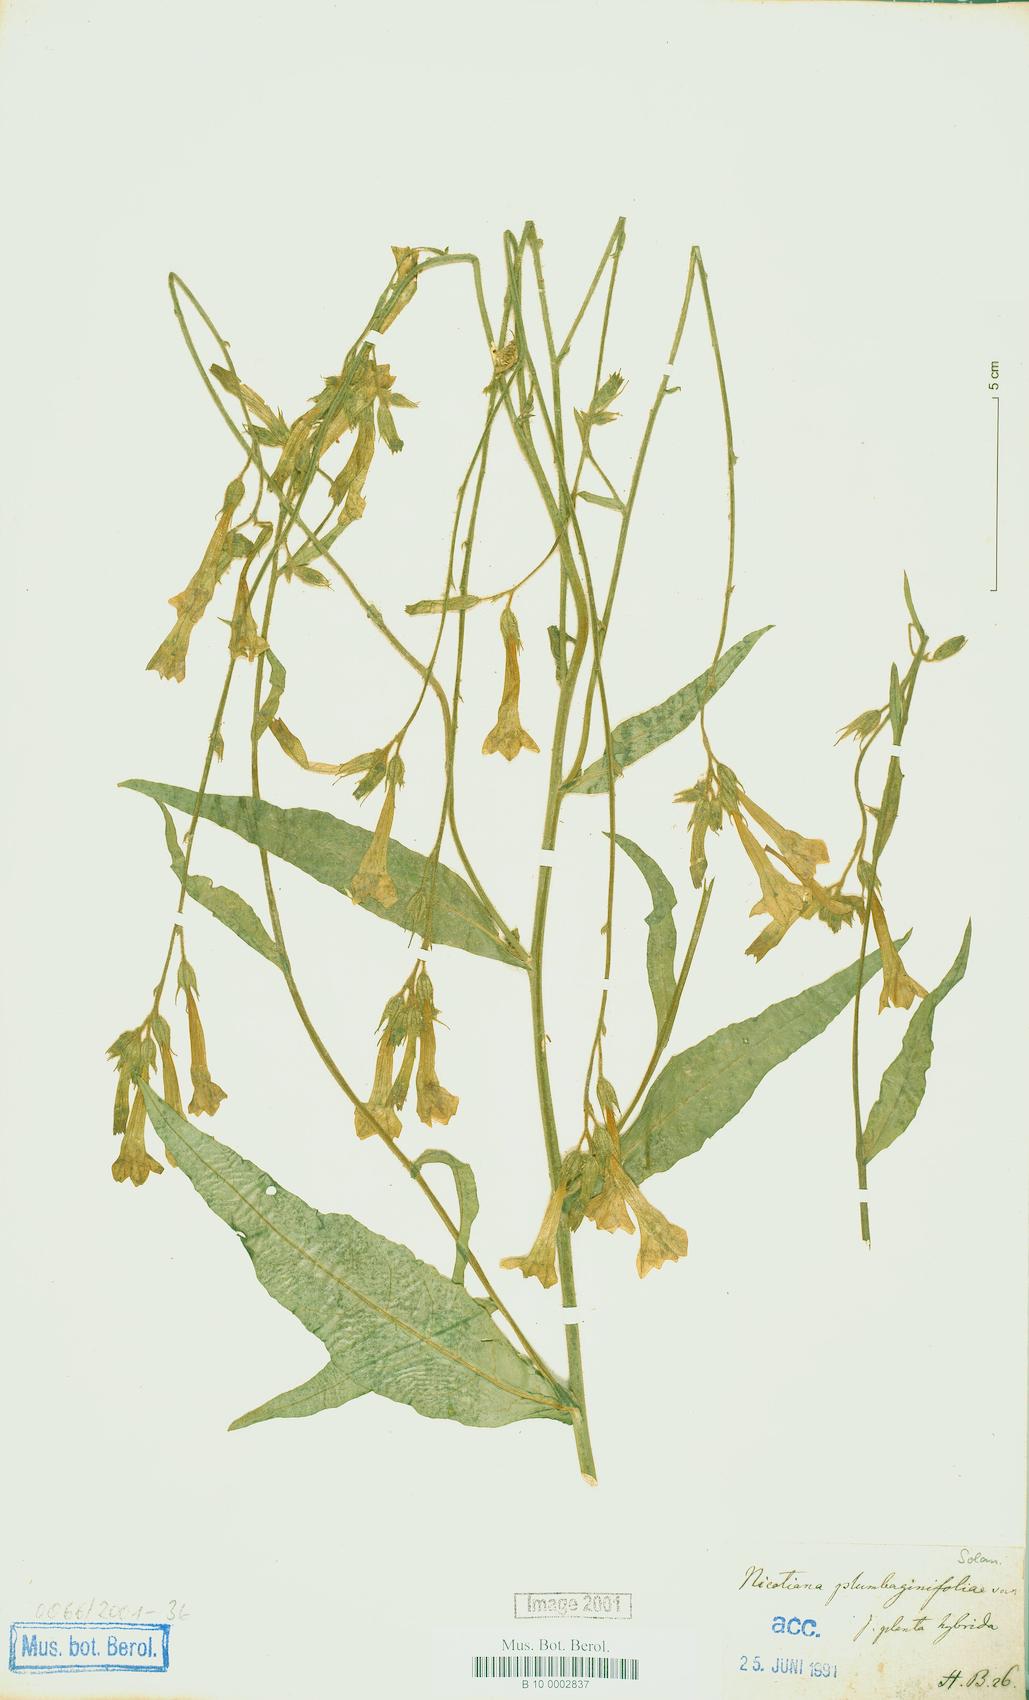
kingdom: Plantae
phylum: Tracheophyta
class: Magnoliopsida
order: Solanales
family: Solanaceae
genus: Nicotiana
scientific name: Nicotiana plumbaginifolia
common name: Tex-mex tobacco
